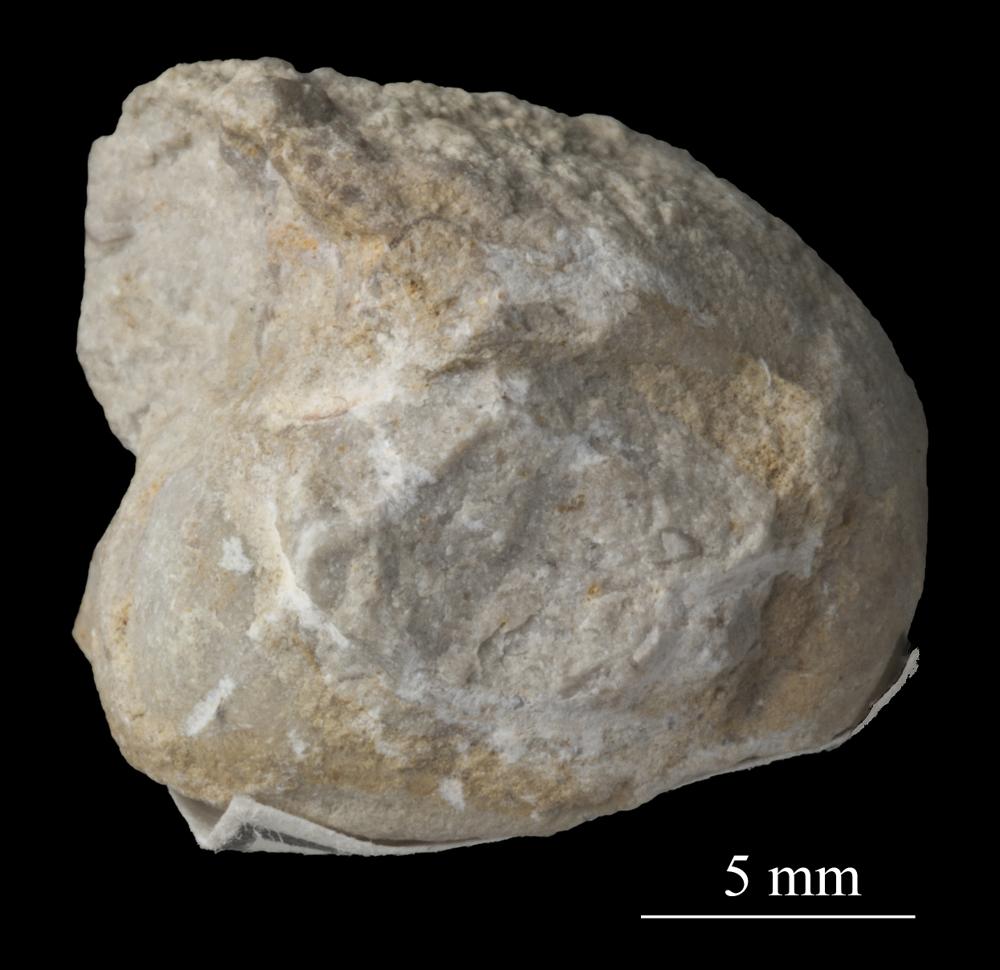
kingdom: Animalia
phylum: Mollusca
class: Gastropoda
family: Bellerophontidae
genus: Bellerophon
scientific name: Bellerophon
